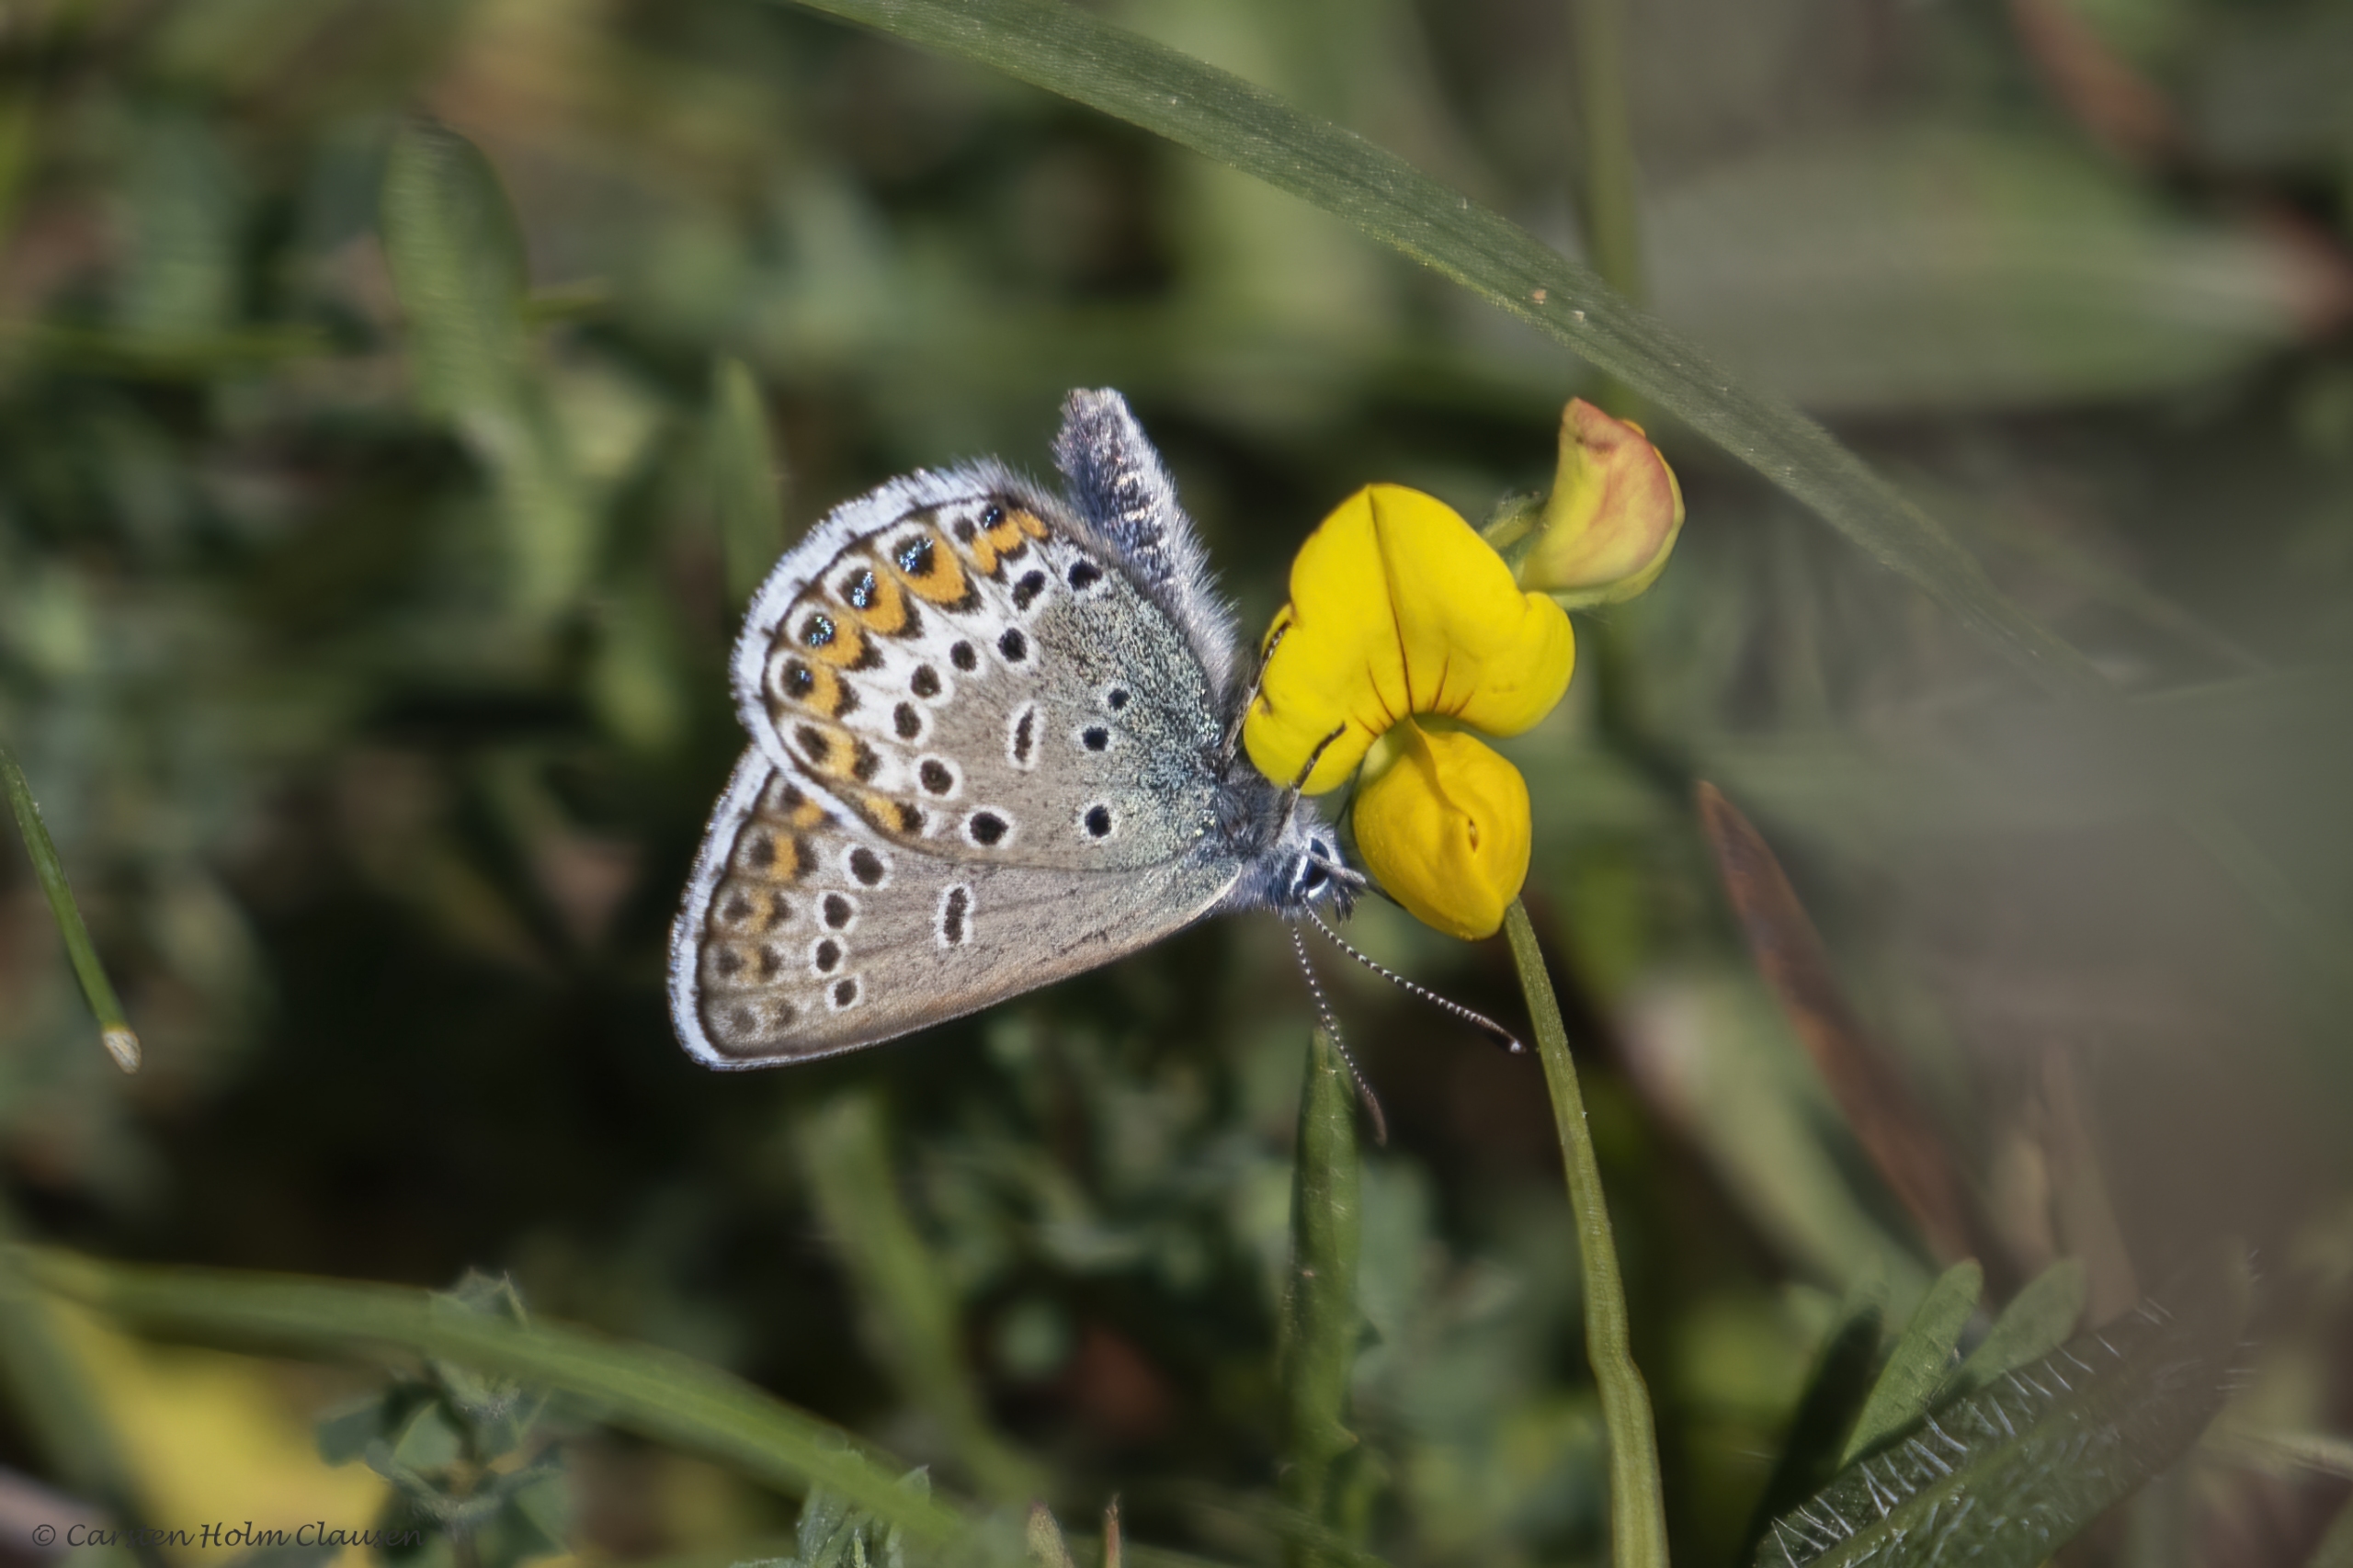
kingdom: Animalia
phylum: Arthropoda
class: Insecta
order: Lepidoptera
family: Lycaenidae
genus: Lycaeides
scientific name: Lycaeides idas
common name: Foranderlig blåfugl
